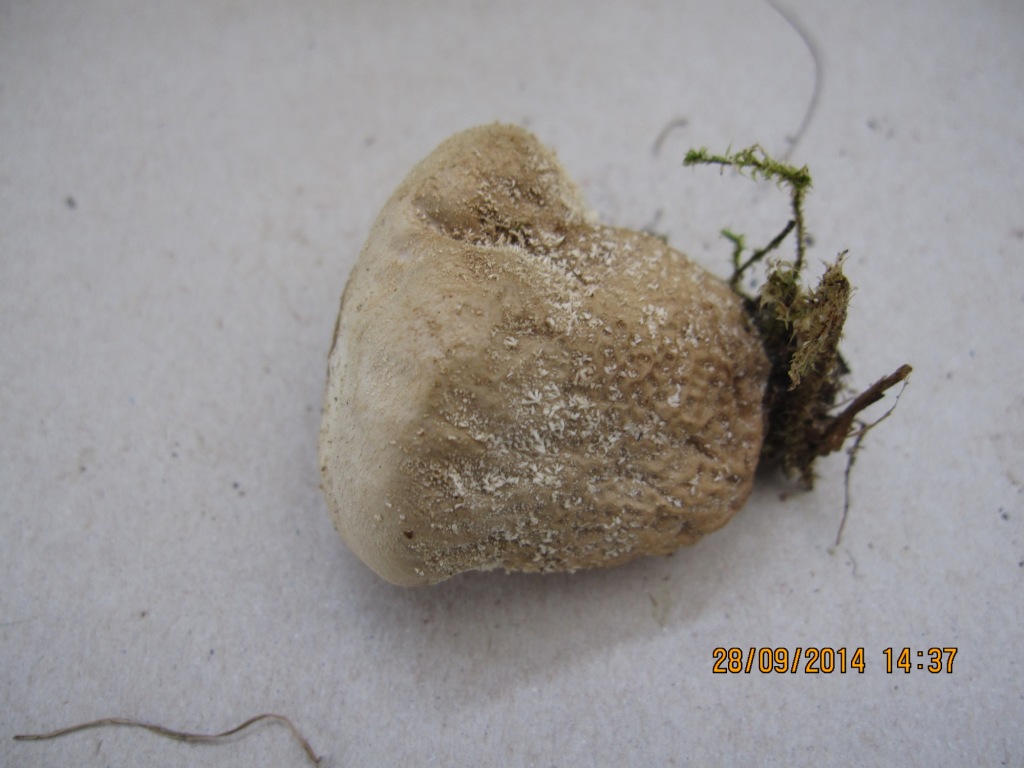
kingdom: Fungi
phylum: Basidiomycota
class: Agaricomycetes
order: Agaricales
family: Lycoperdaceae
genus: Lycoperdon
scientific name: Lycoperdon pratense
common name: flad støvbold
